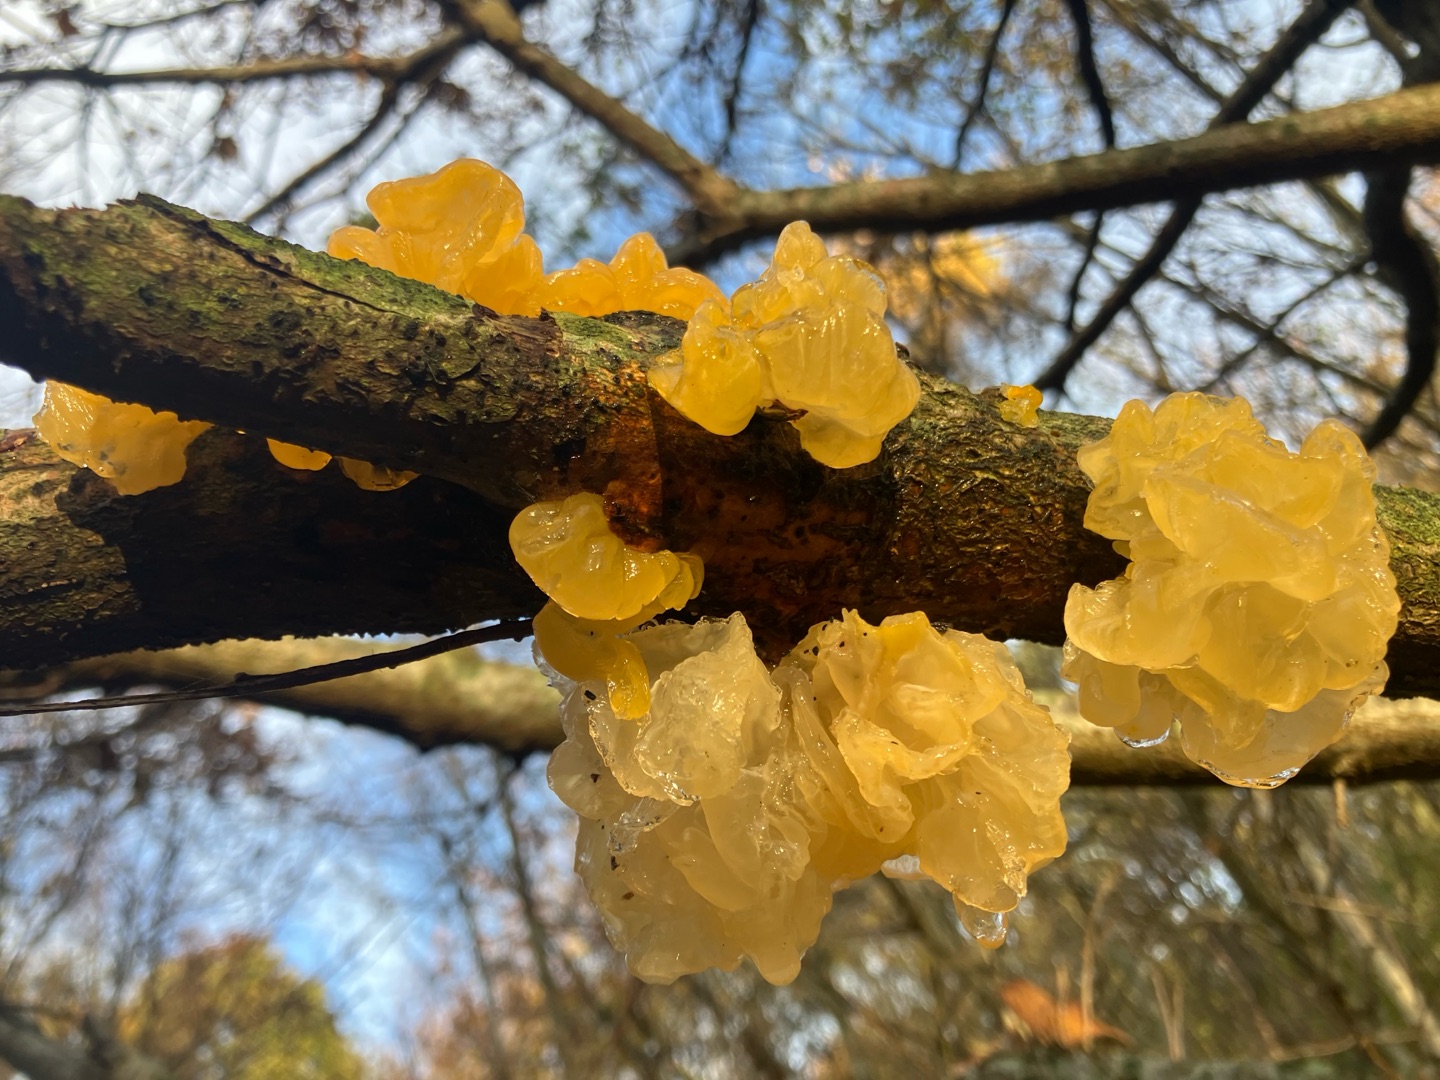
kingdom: Fungi
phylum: Basidiomycota
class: Tremellomycetes
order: Tremellales
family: Tremellaceae
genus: Tremella
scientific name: Tremella mesenterica
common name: Gul bævresvamp
